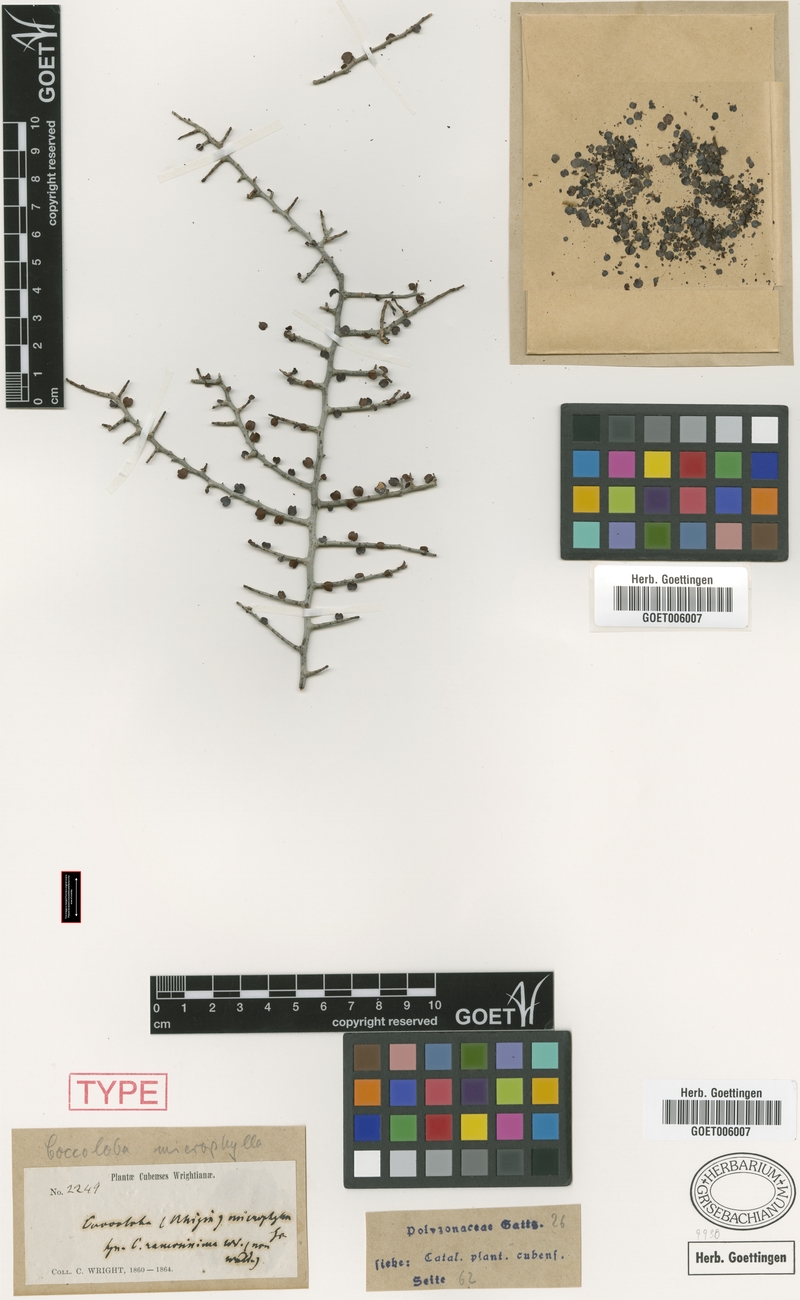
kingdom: Plantae
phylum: Tracheophyta
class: Magnoliopsida
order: Caryophyllales
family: Polygonaceae
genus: Coccoloba
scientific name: Coccoloba microphylla
